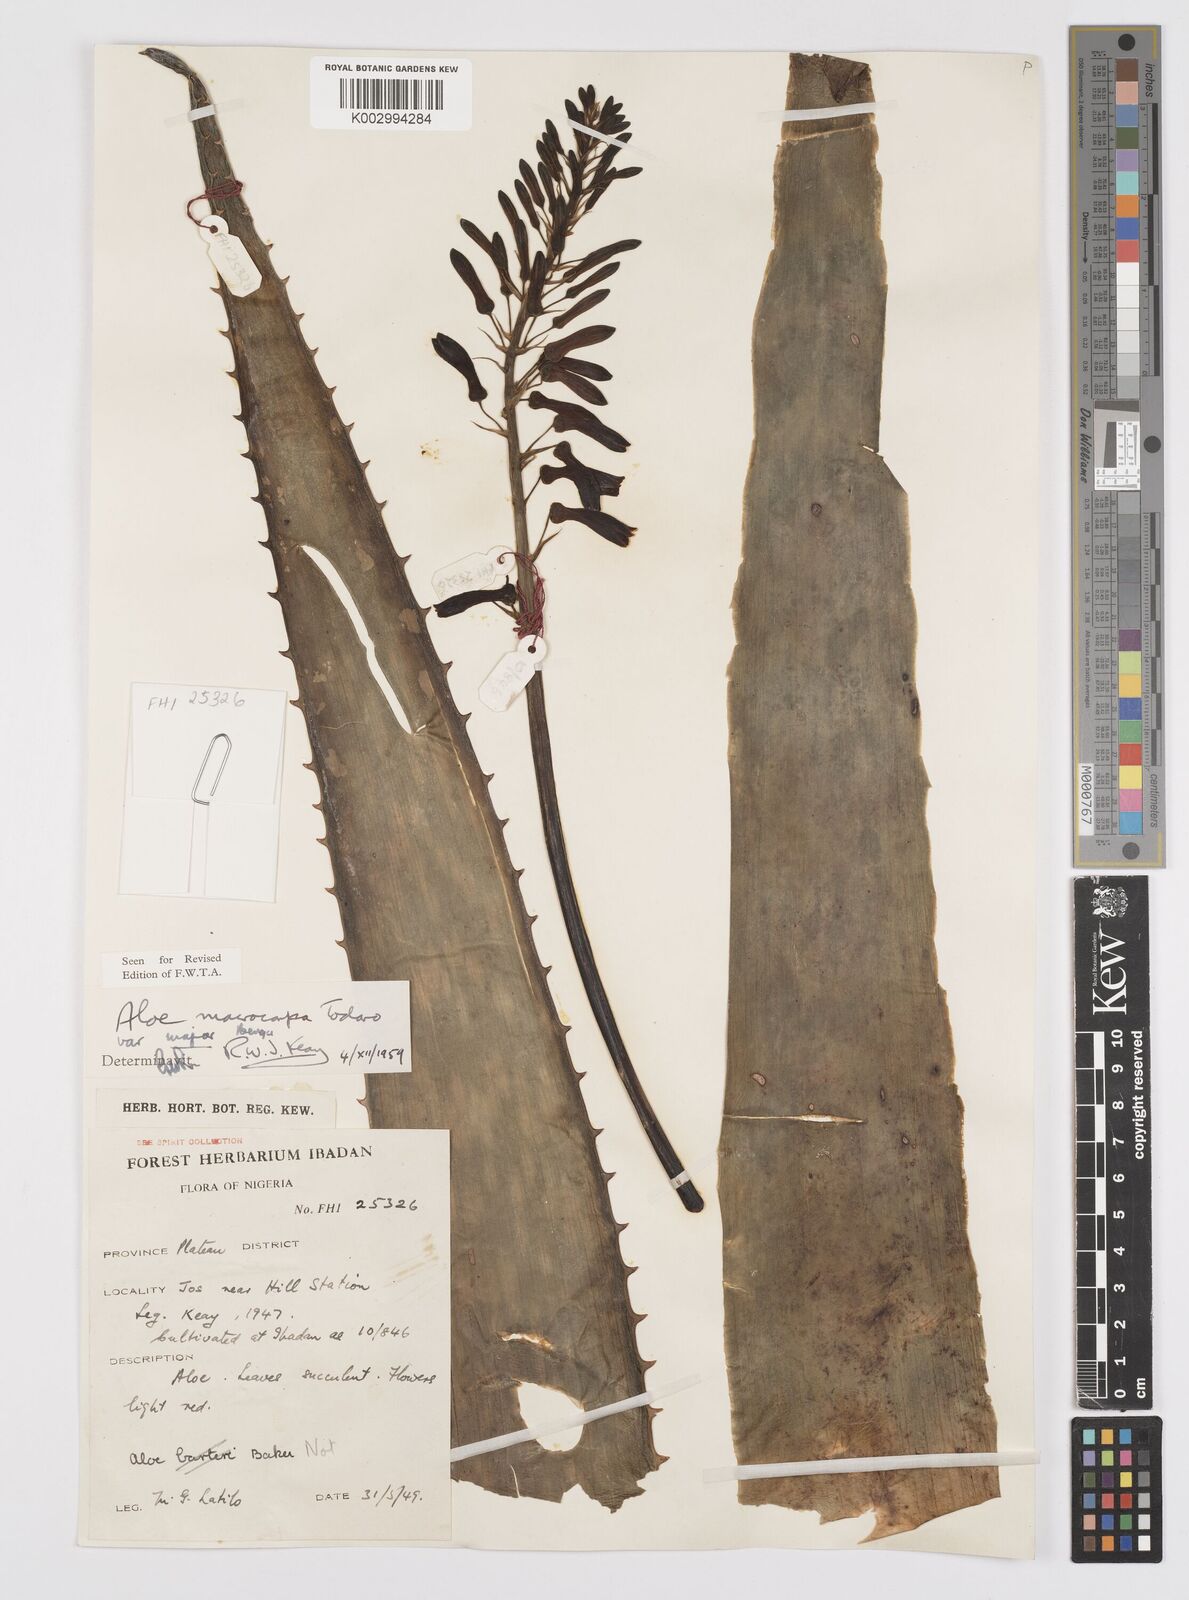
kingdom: Plantae
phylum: Tracheophyta
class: Liliopsida
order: Asparagales
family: Asphodelaceae
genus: Aloe
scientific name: Aloe macrocarpa
